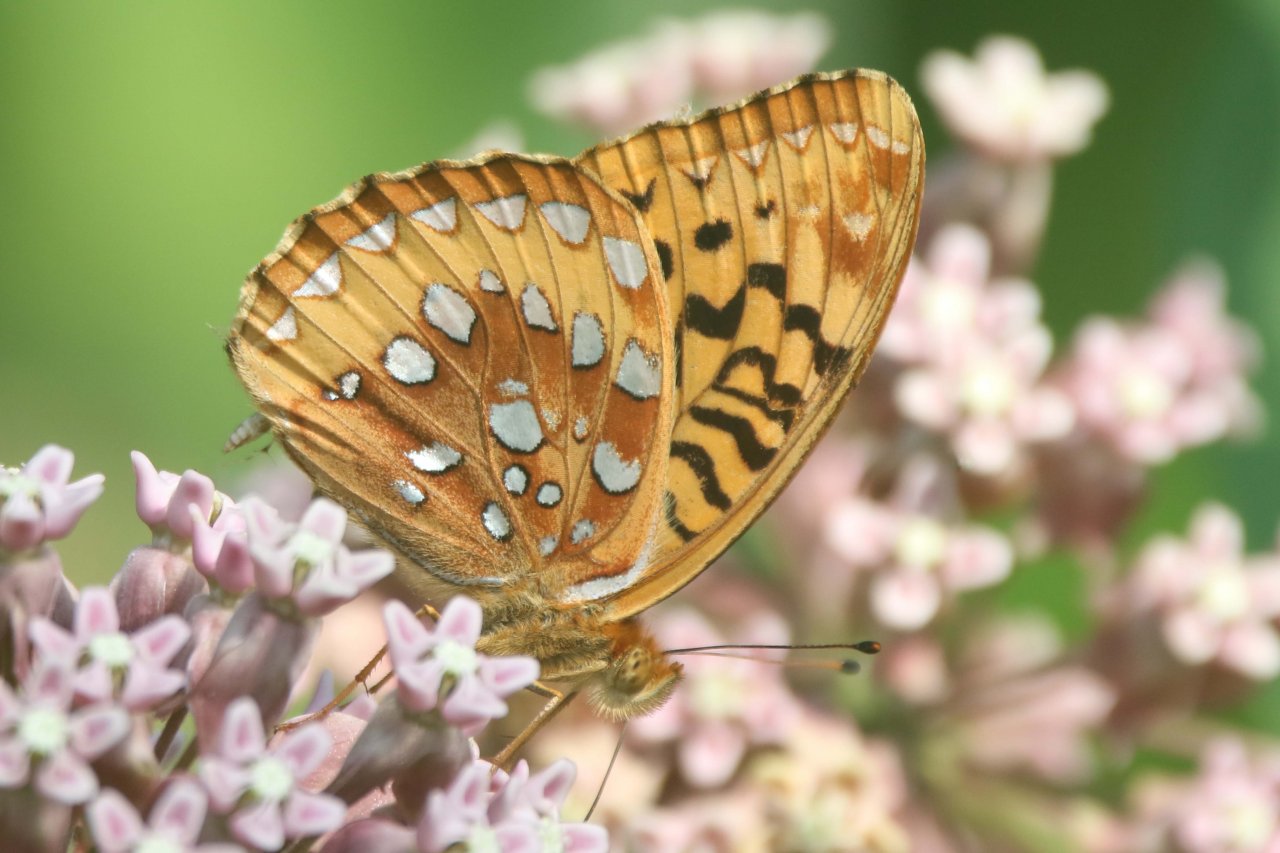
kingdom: Animalia
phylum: Arthropoda
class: Insecta
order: Lepidoptera
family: Nymphalidae
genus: Speyeria
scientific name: Speyeria cybele
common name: Great Spangled Fritillary
